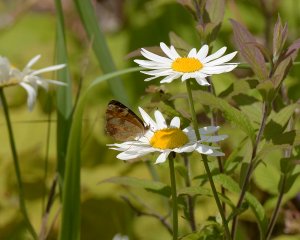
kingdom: Animalia
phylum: Arthropoda
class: Insecta
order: Lepidoptera
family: Nymphalidae
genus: Phyciodes
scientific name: Phyciodes tharos
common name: Northern Crescent
